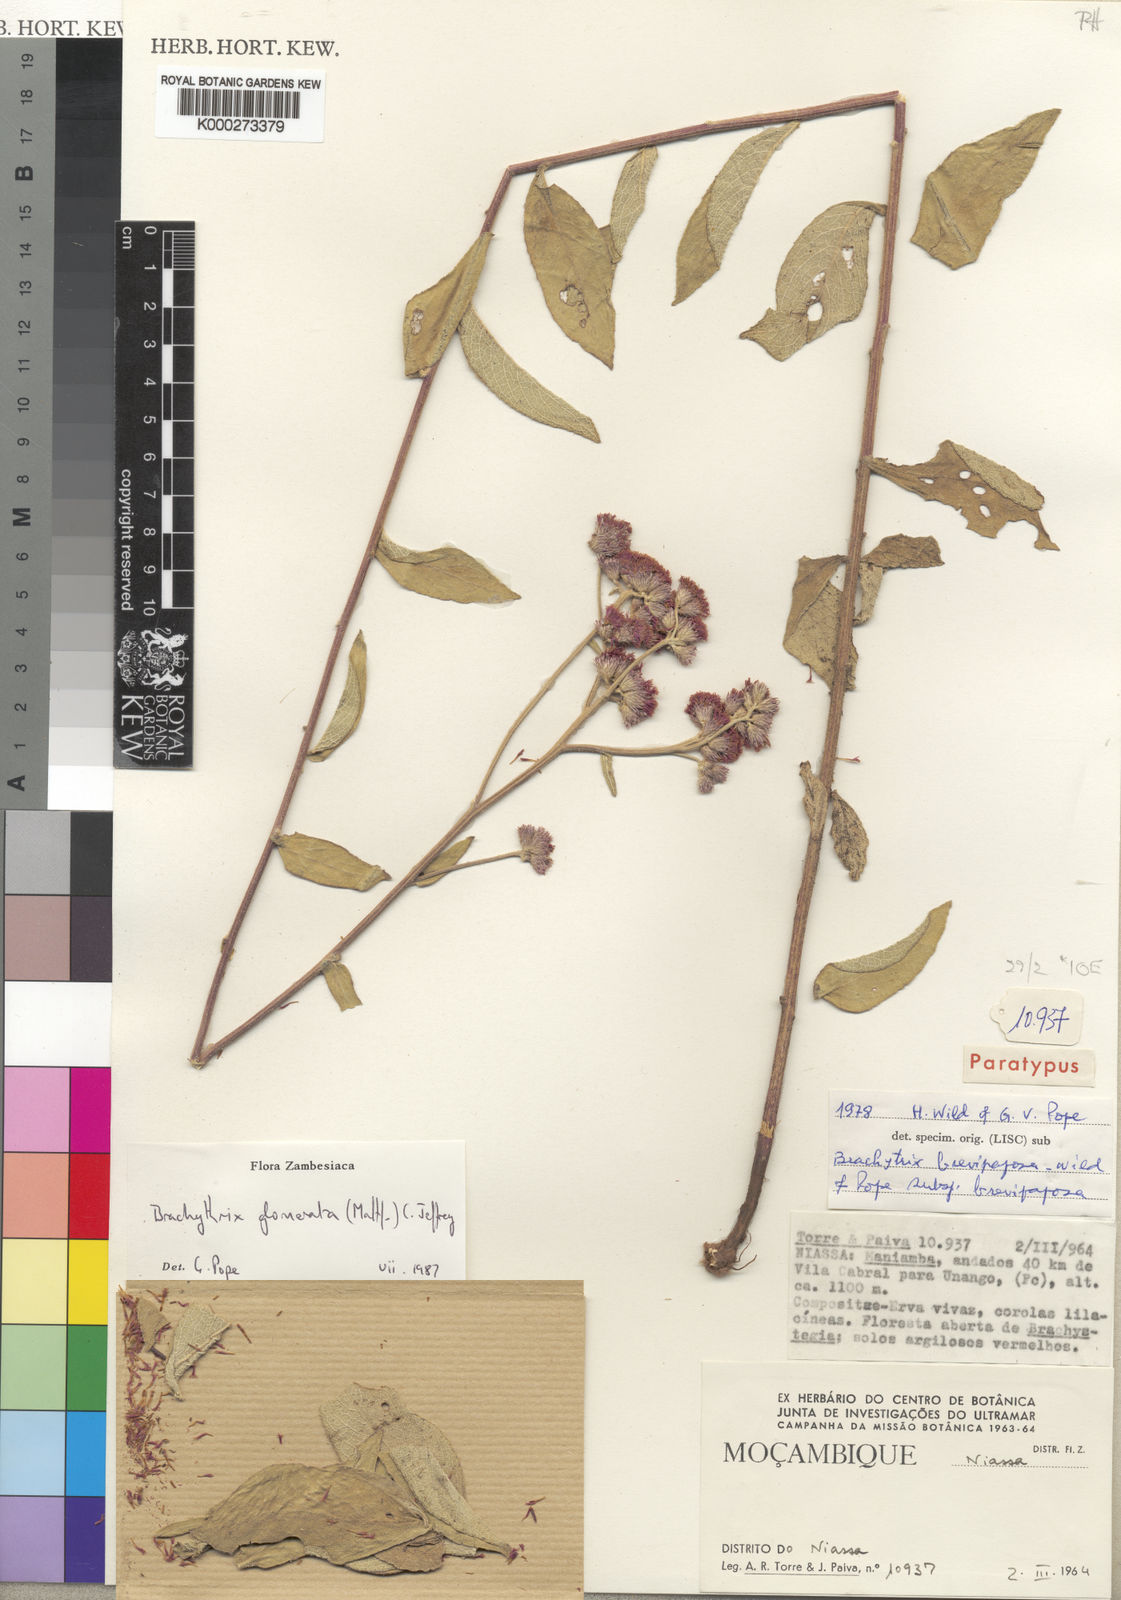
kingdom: Plantae
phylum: Tracheophyta
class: Magnoliopsida
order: Asterales
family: Asteraceae
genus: Brachythrix
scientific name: Brachythrix glomerata
